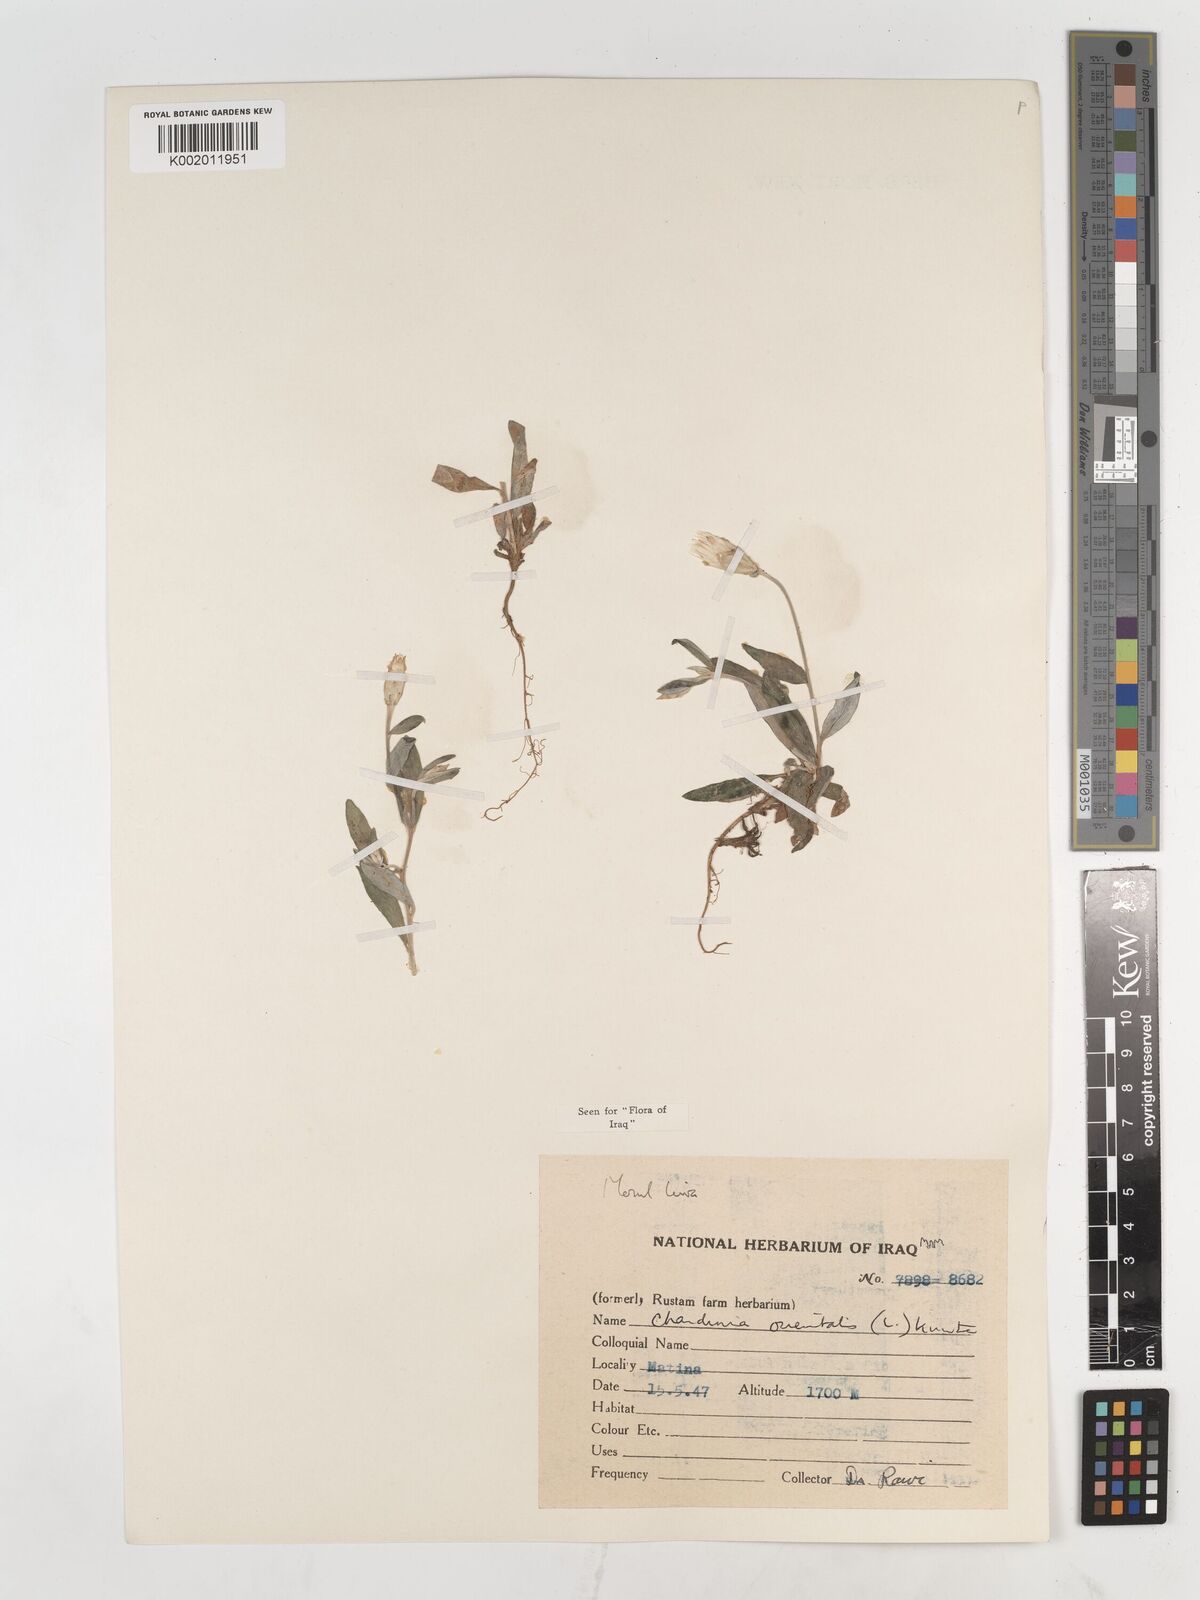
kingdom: Plantae
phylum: Tracheophyta
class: Magnoliopsida
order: Asterales
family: Asteraceae
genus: Chardinia
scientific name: Chardinia orientalis
